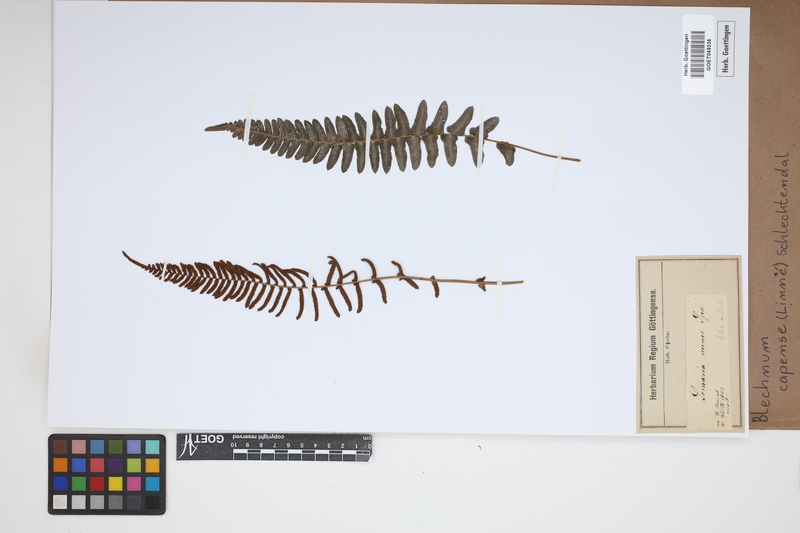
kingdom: Plantae
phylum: Tracheophyta
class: Polypodiopsida
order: Polypodiales
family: Blechnaceae
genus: Parablechnum
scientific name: Parablechnum capense
